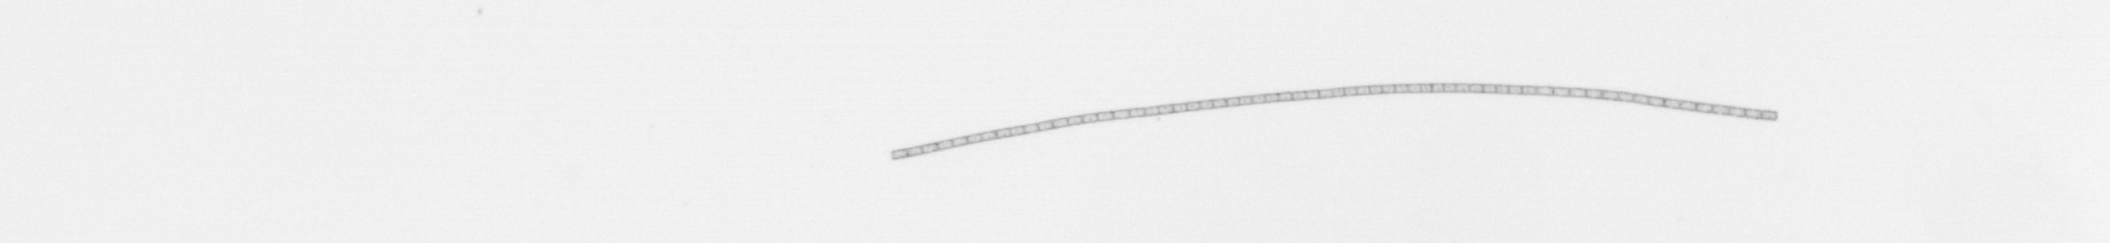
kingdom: Chromista
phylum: Ochrophyta
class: Bacillariophyceae
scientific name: Bacillariophyceae
